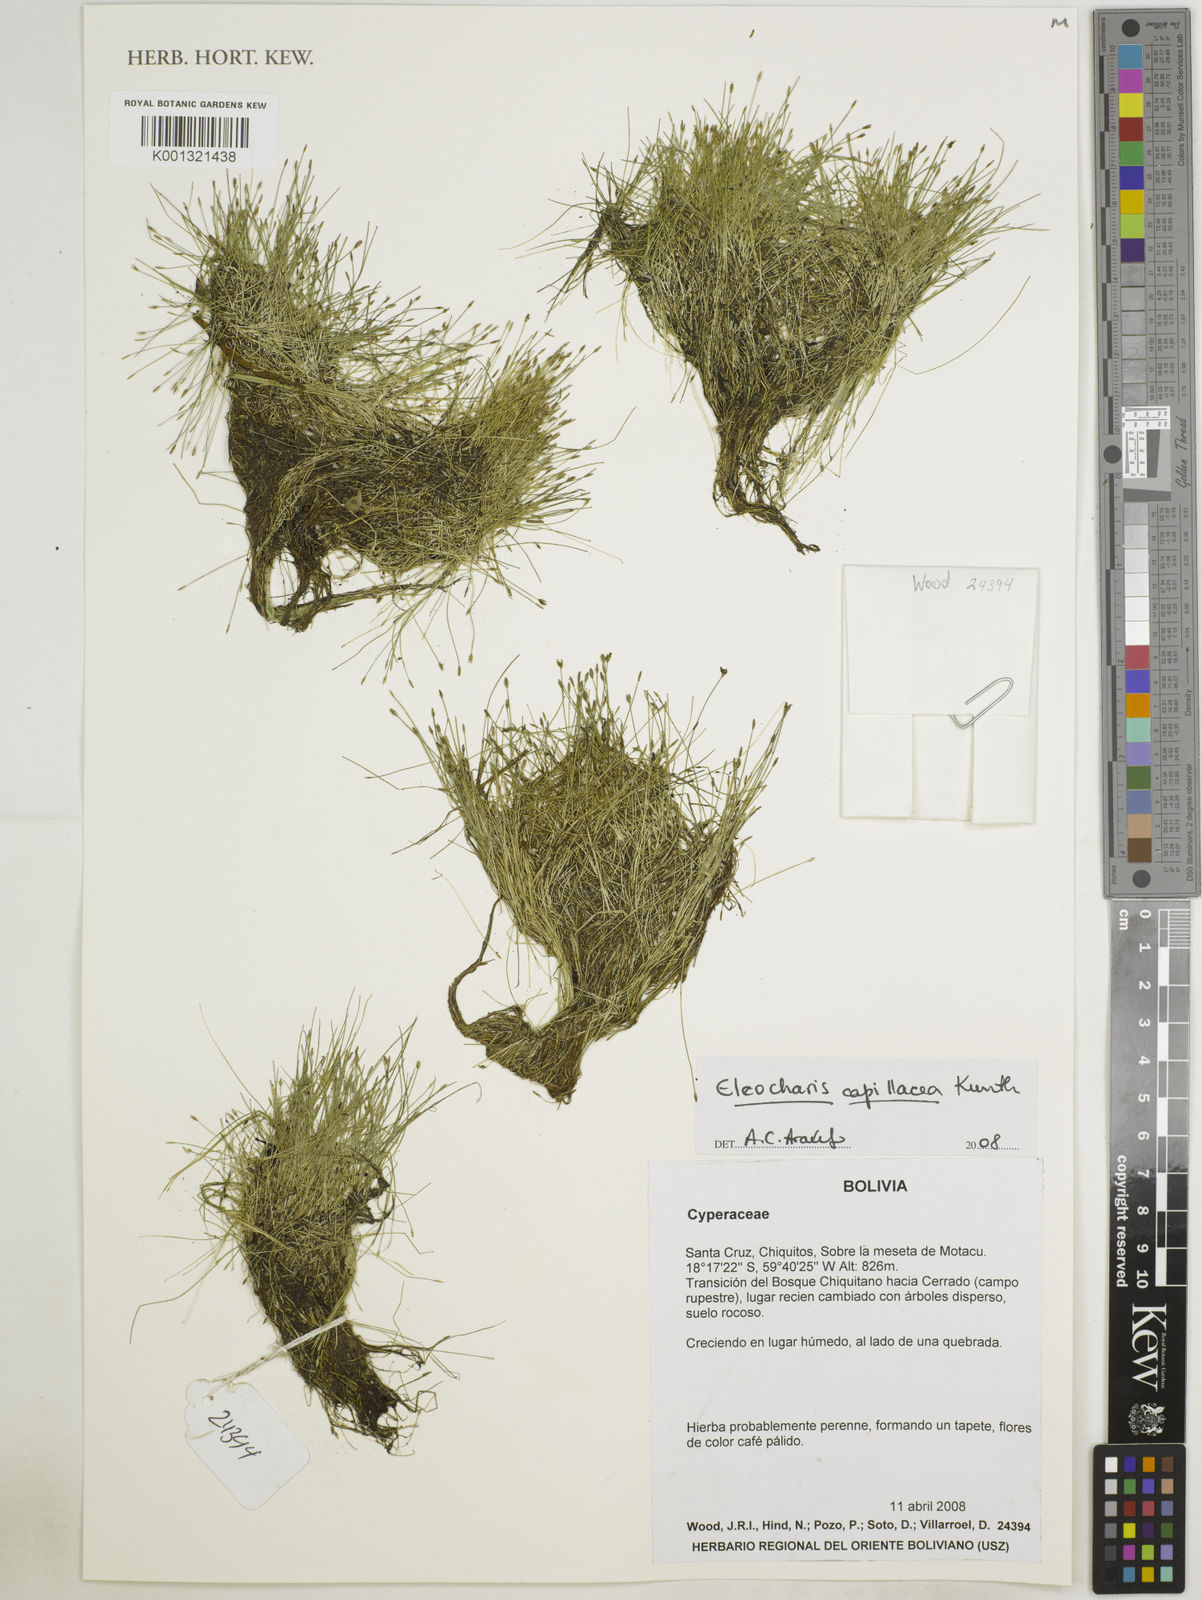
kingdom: Plantae
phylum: Tracheophyta
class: Liliopsida
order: Poales
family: Cyperaceae
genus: Eleocharis
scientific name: Eleocharis capillacea
